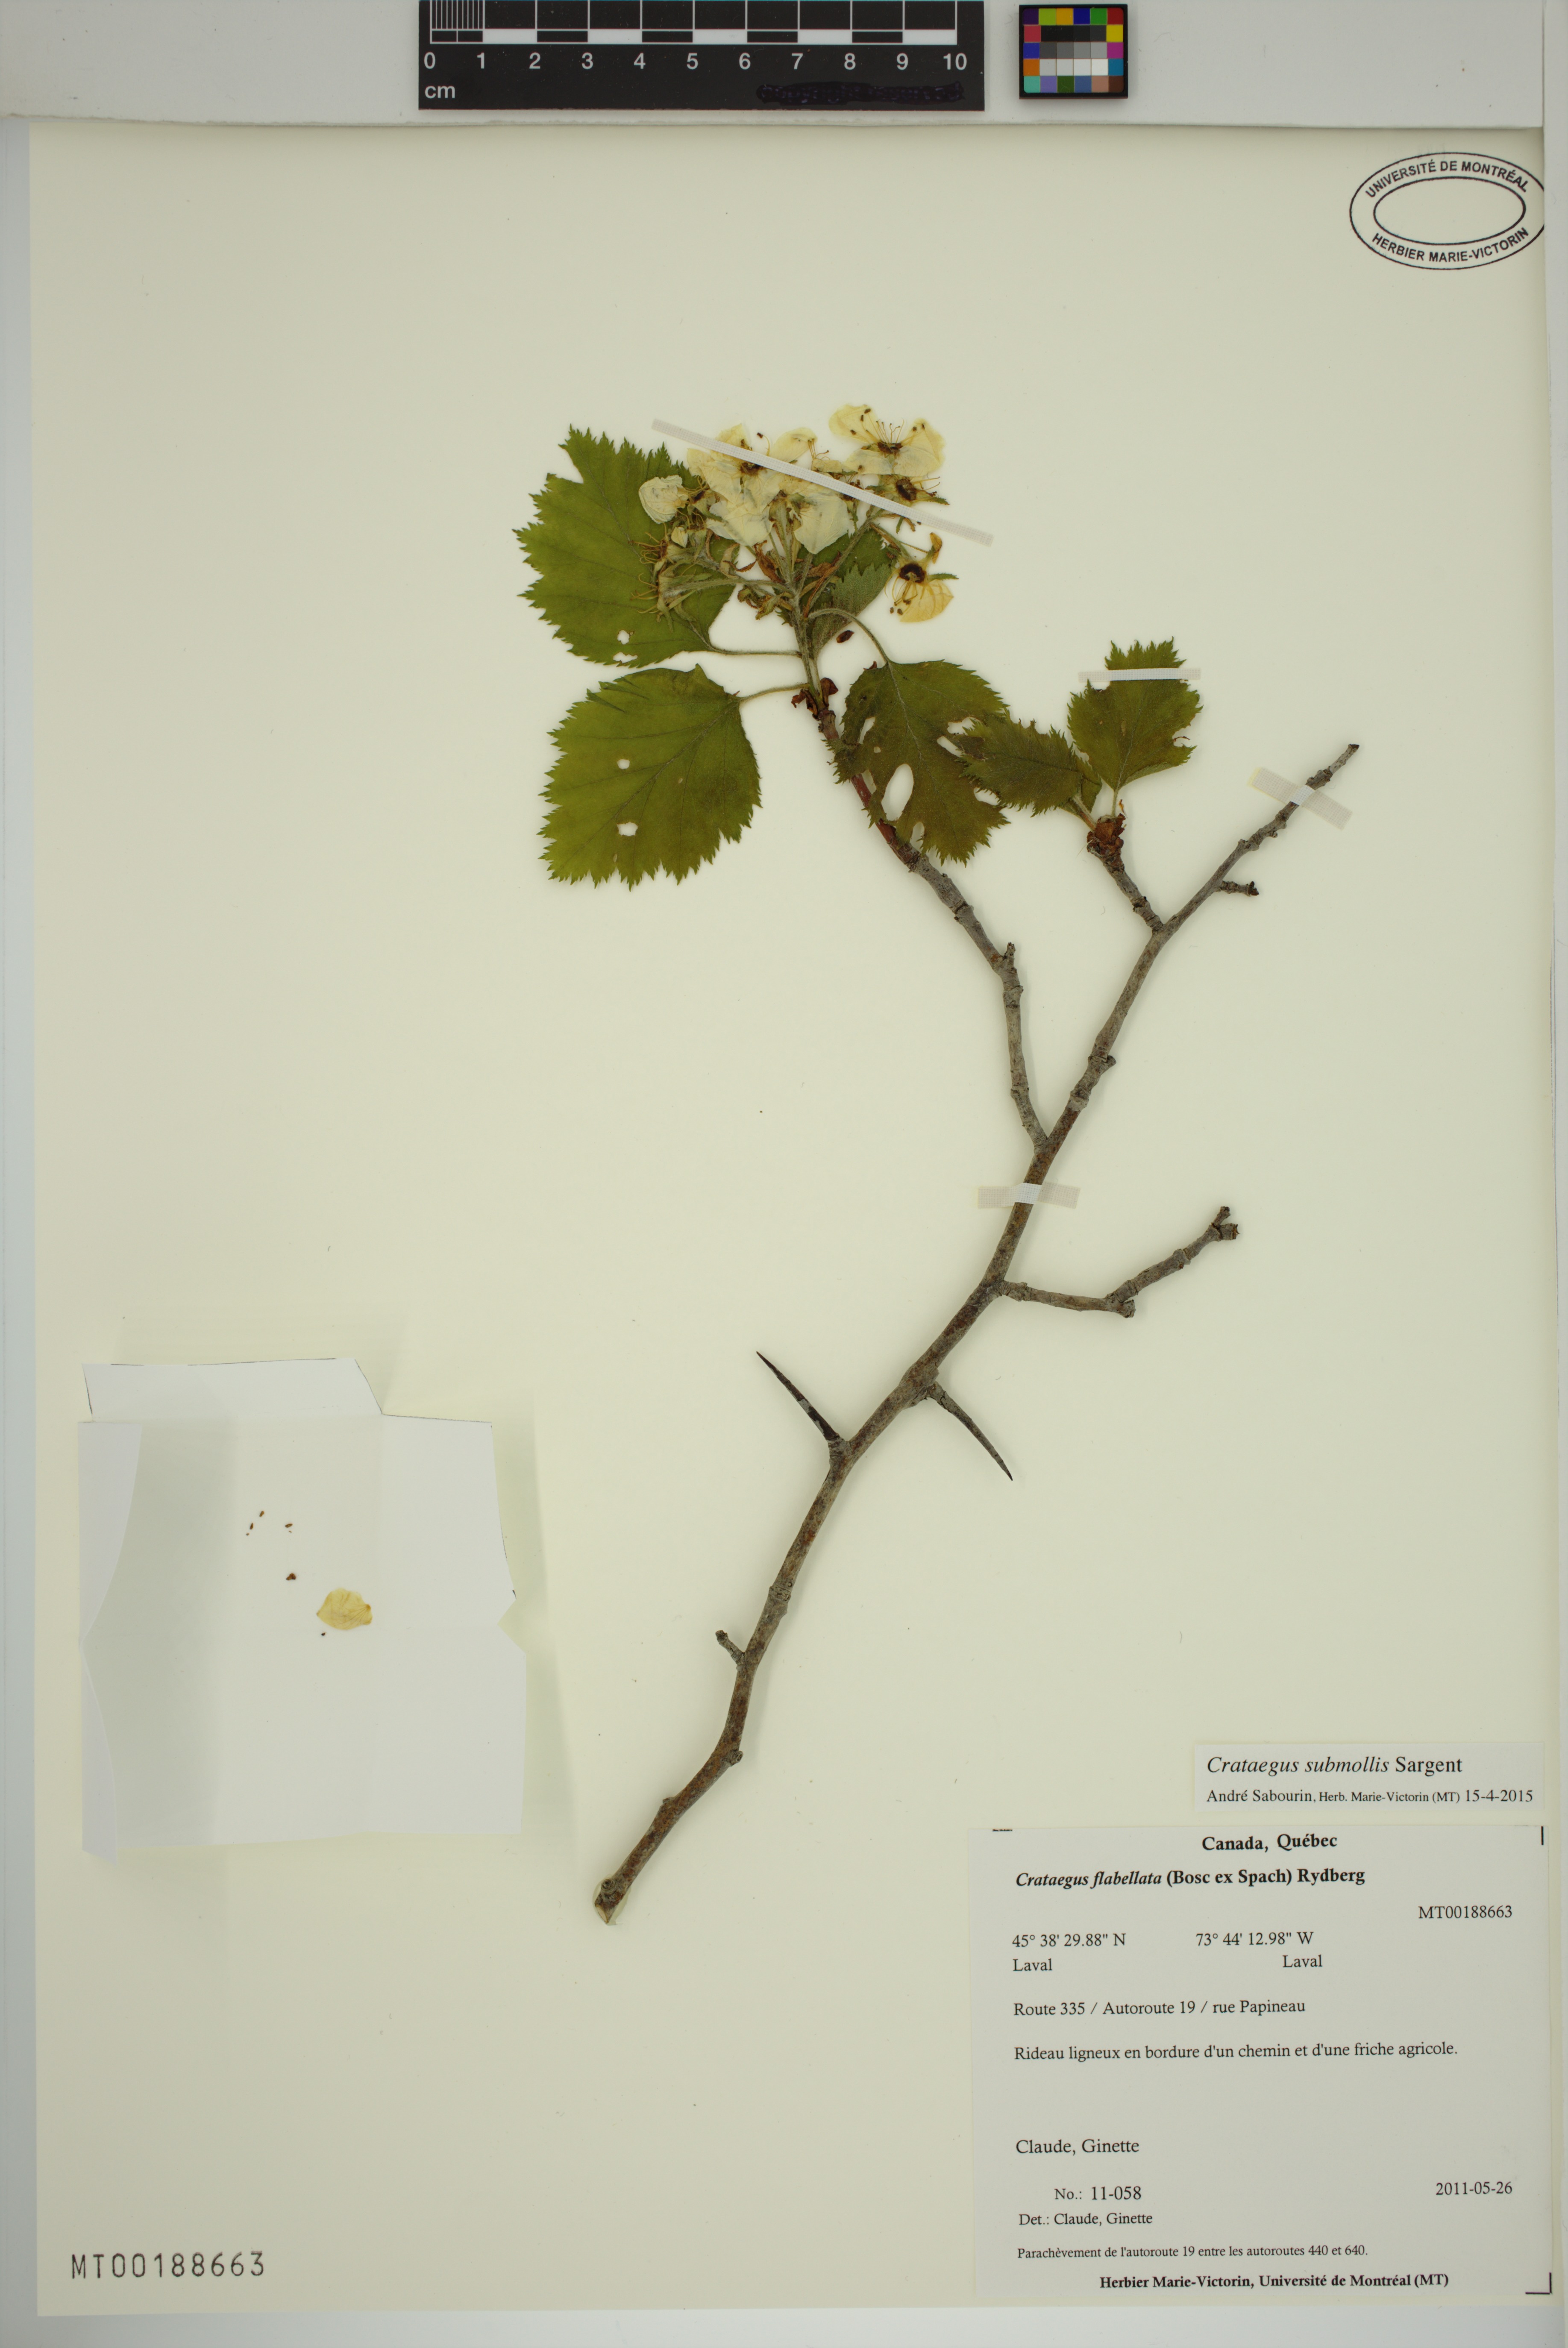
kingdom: Plantae
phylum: Tracheophyta
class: Magnoliopsida
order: Rosales
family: Rosaceae
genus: Crataegus
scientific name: Crataegus submollis
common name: Hairy cockspurthorn
